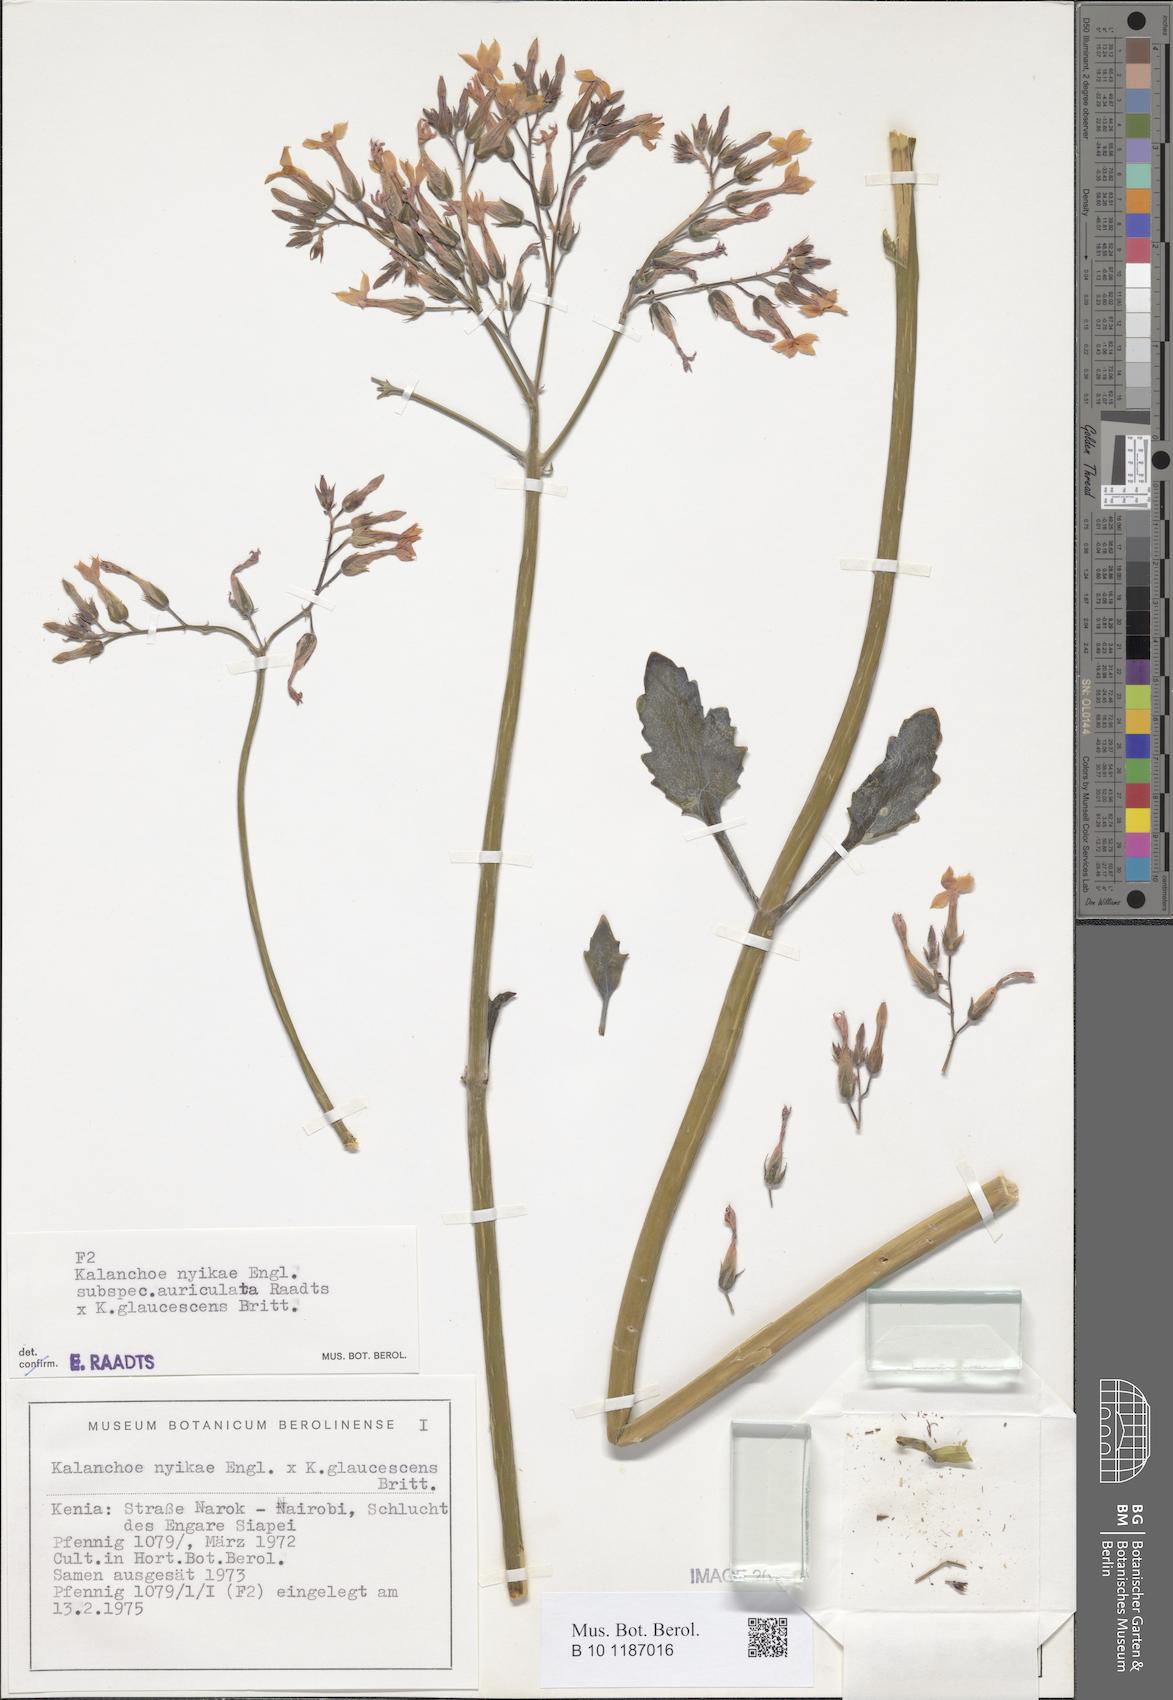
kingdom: Plantae
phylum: Tracheophyta
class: Magnoliopsida
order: Saxifragales
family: Crassulaceae
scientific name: Crassulaceae
